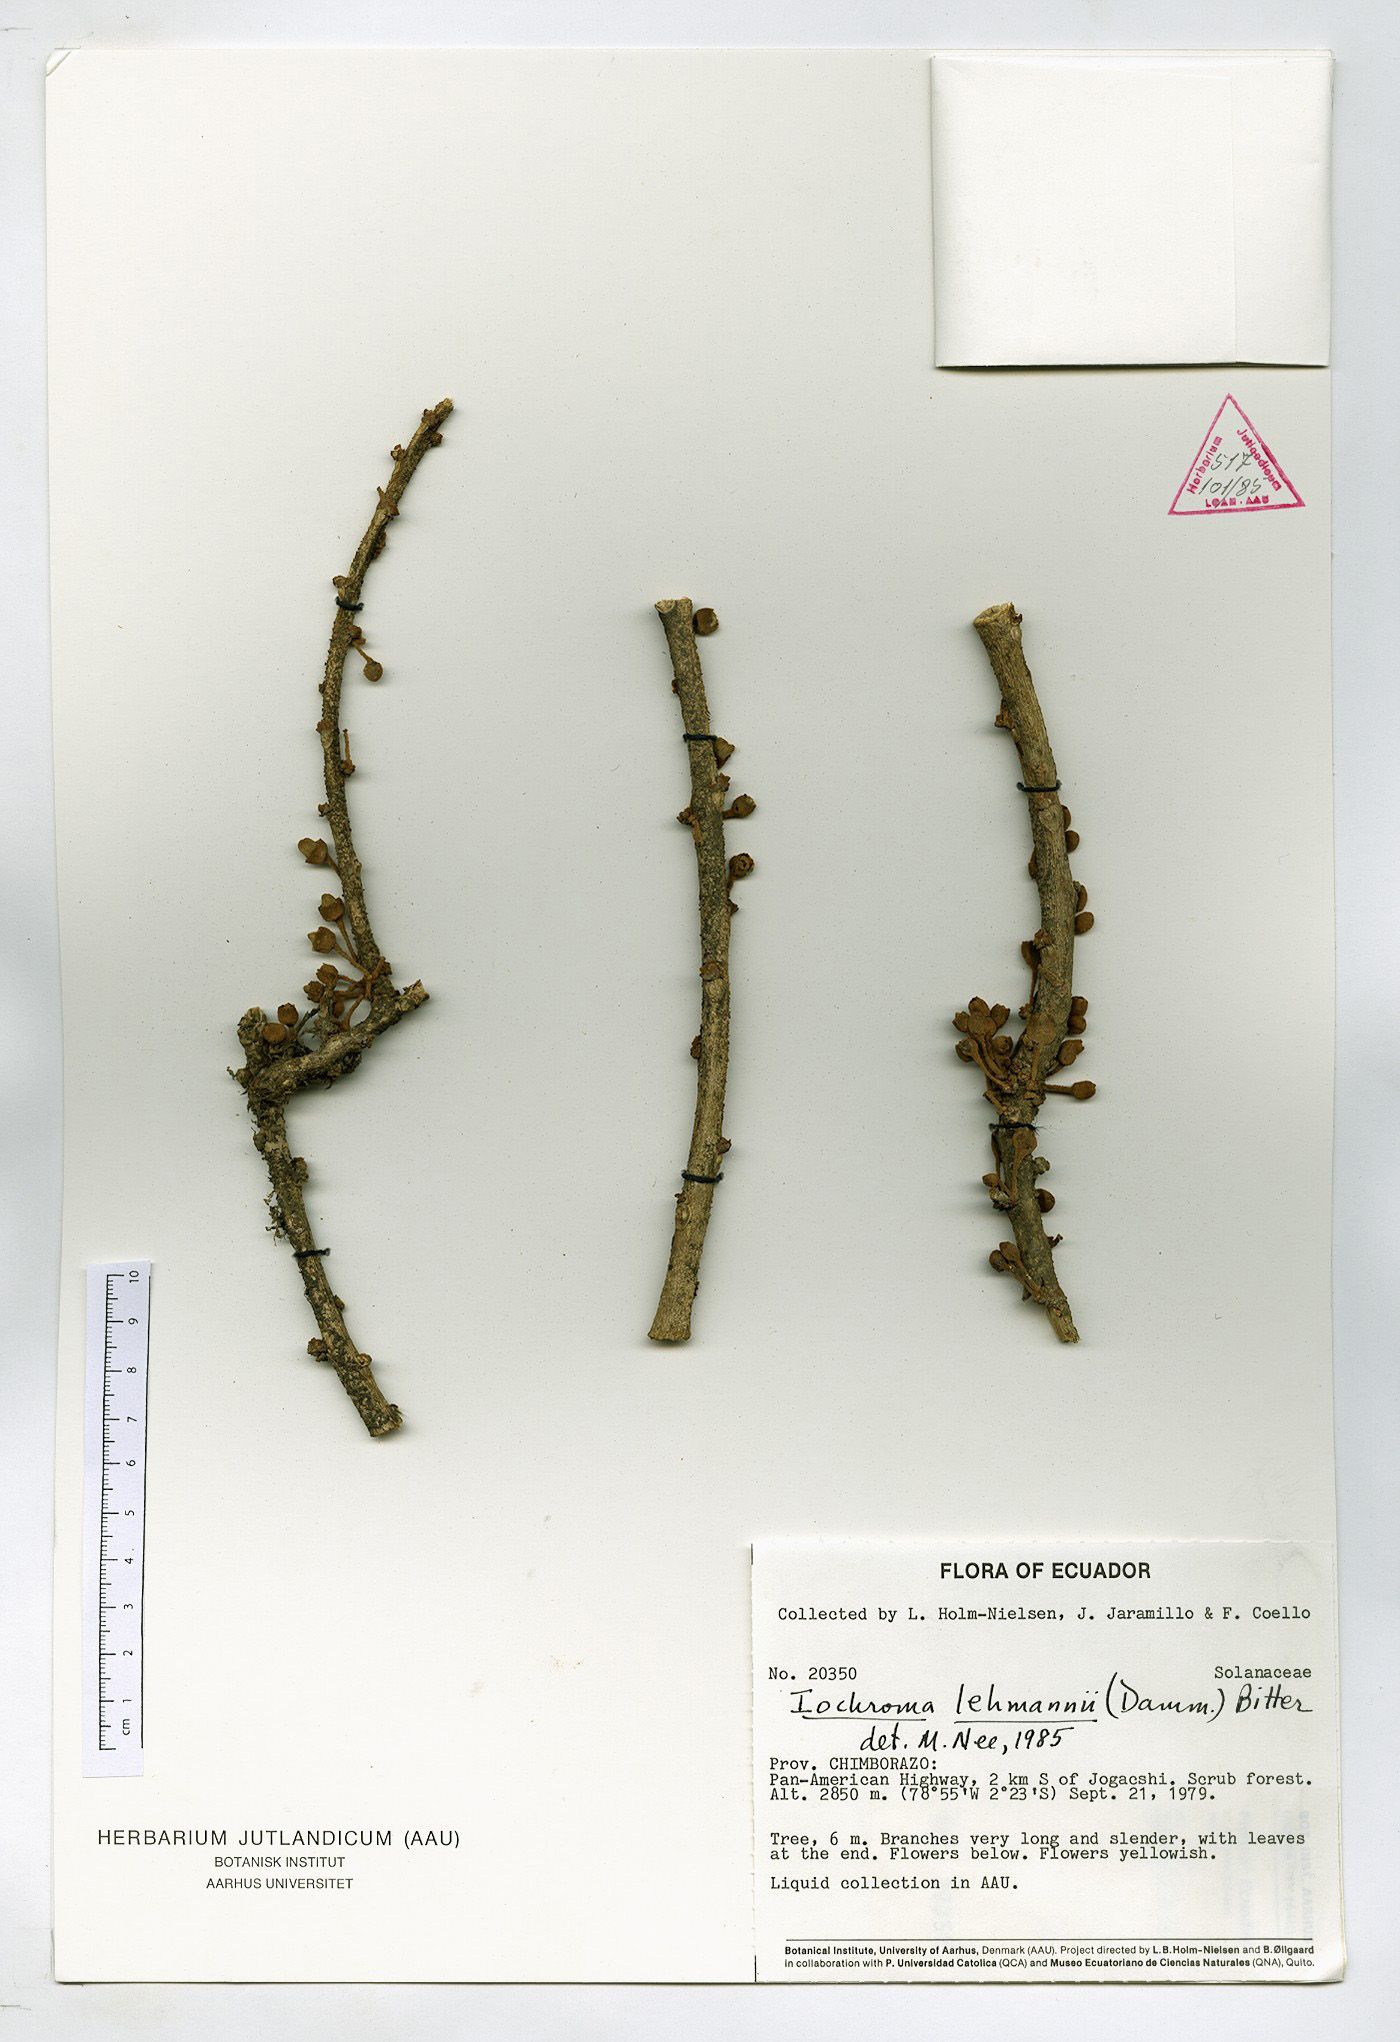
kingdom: Plantae
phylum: Tracheophyta
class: Magnoliopsida
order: Solanales
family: Solanaceae
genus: Iochroma
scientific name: Iochroma lehmannii
